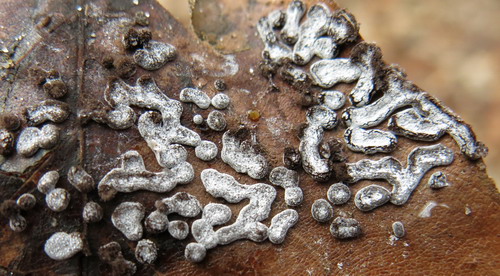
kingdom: Protozoa
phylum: Mycetozoa
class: Myxomycetes
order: Physarales
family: Didymiaceae
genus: Didymium
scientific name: Didymium squamulosum
